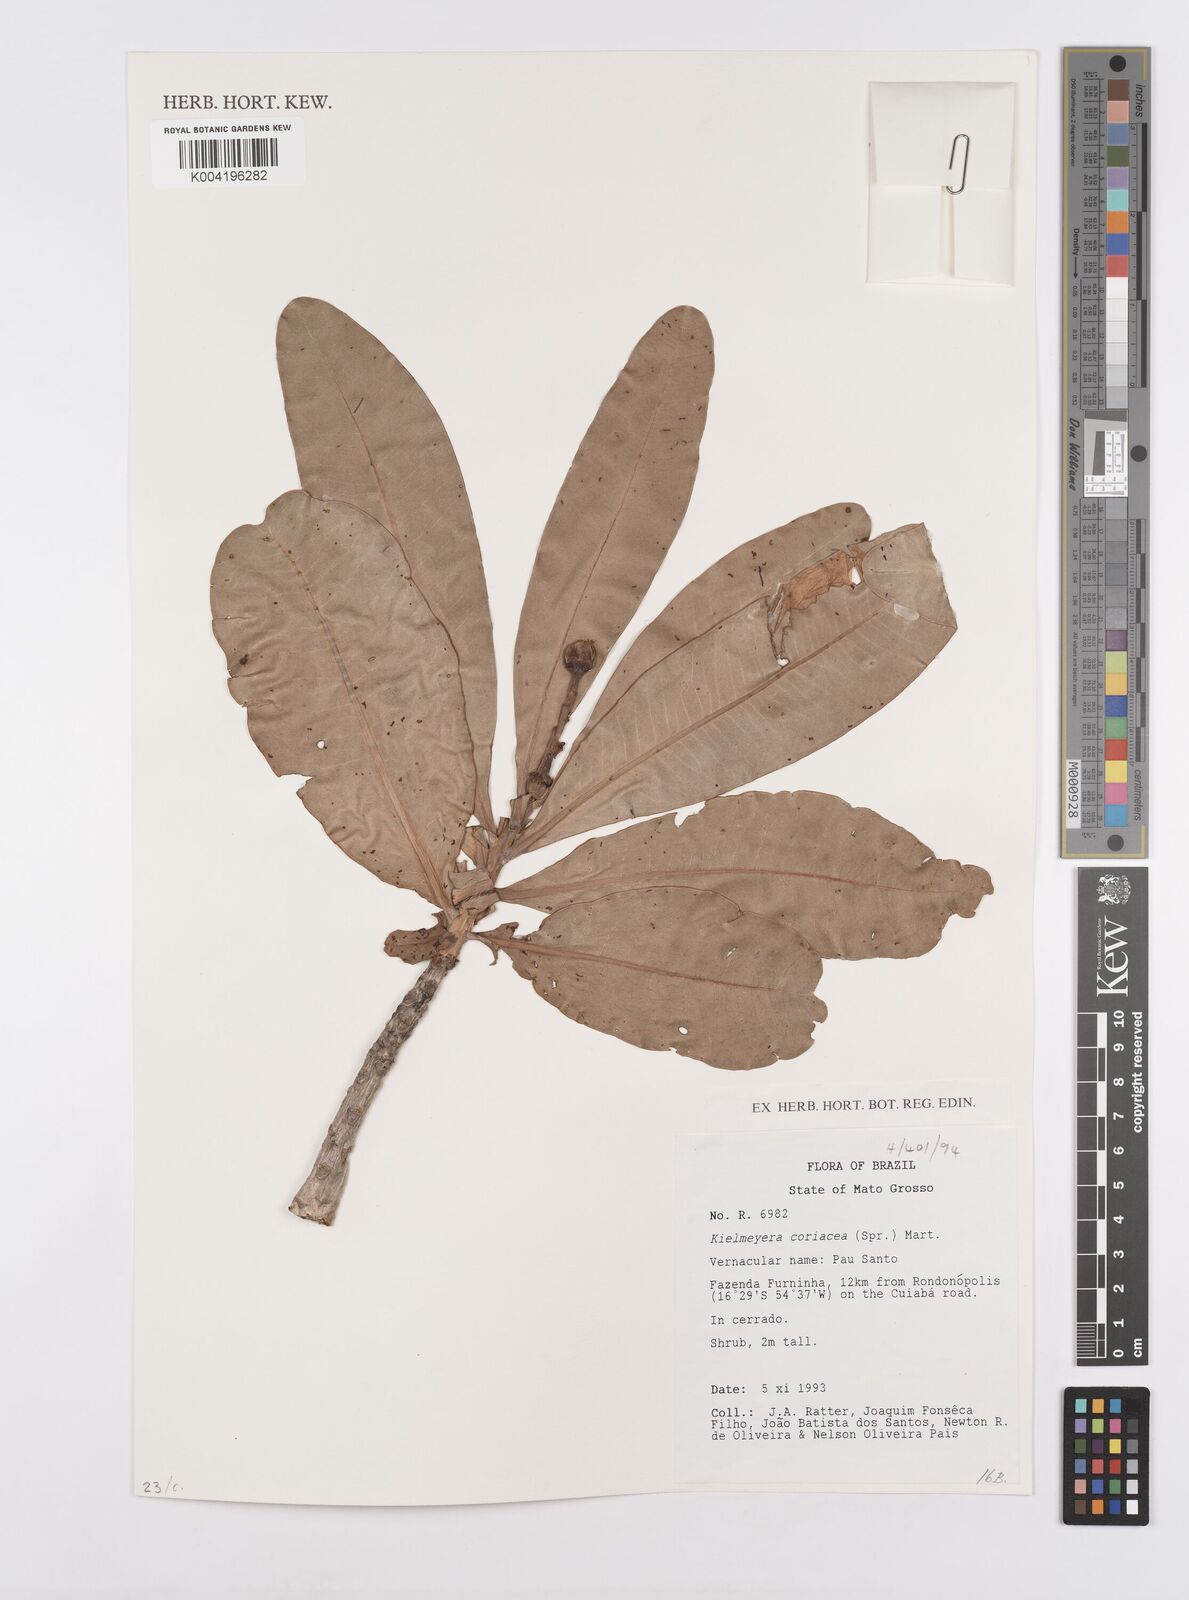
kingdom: Plantae
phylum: Tracheophyta
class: Magnoliopsida
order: Malpighiales
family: Calophyllaceae
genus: Kielmeyera
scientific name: Kielmeyera coriacea
